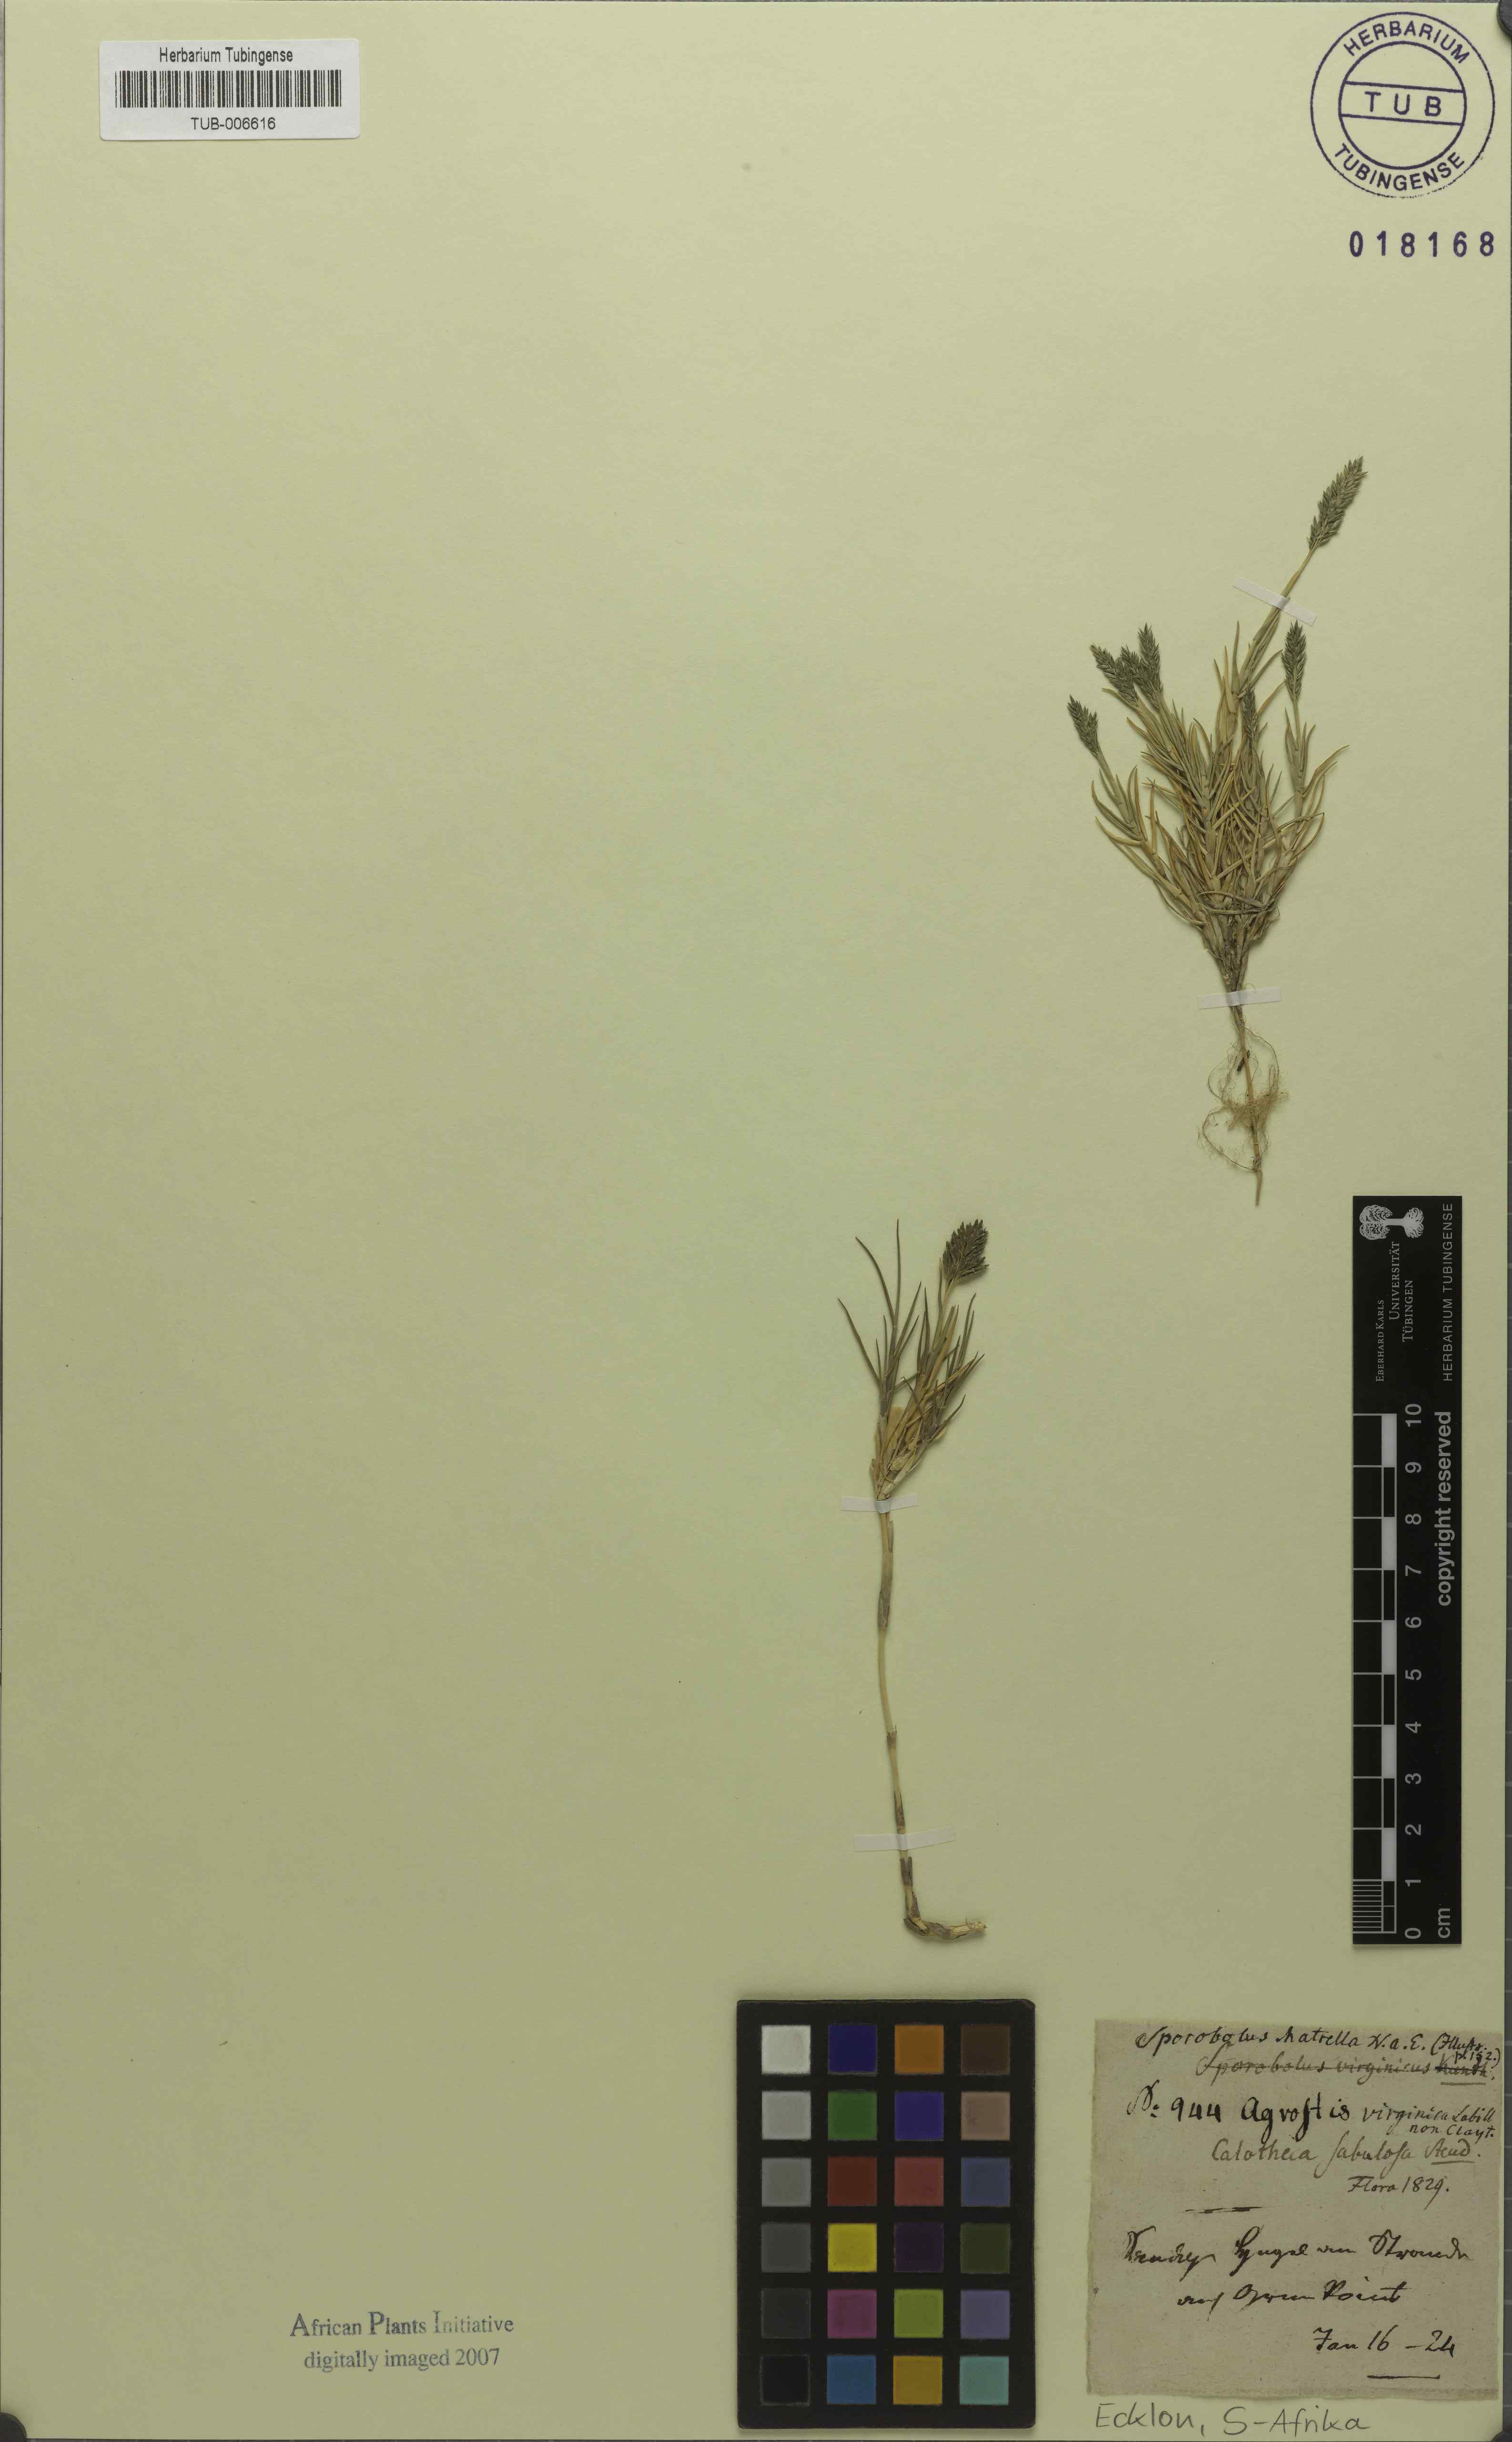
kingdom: Plantae
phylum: Tracheophyta
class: Liliopsida
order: Poales
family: Poaceae
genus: Sporobolus
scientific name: Sporobolus virginicus
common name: Beach dropseed
